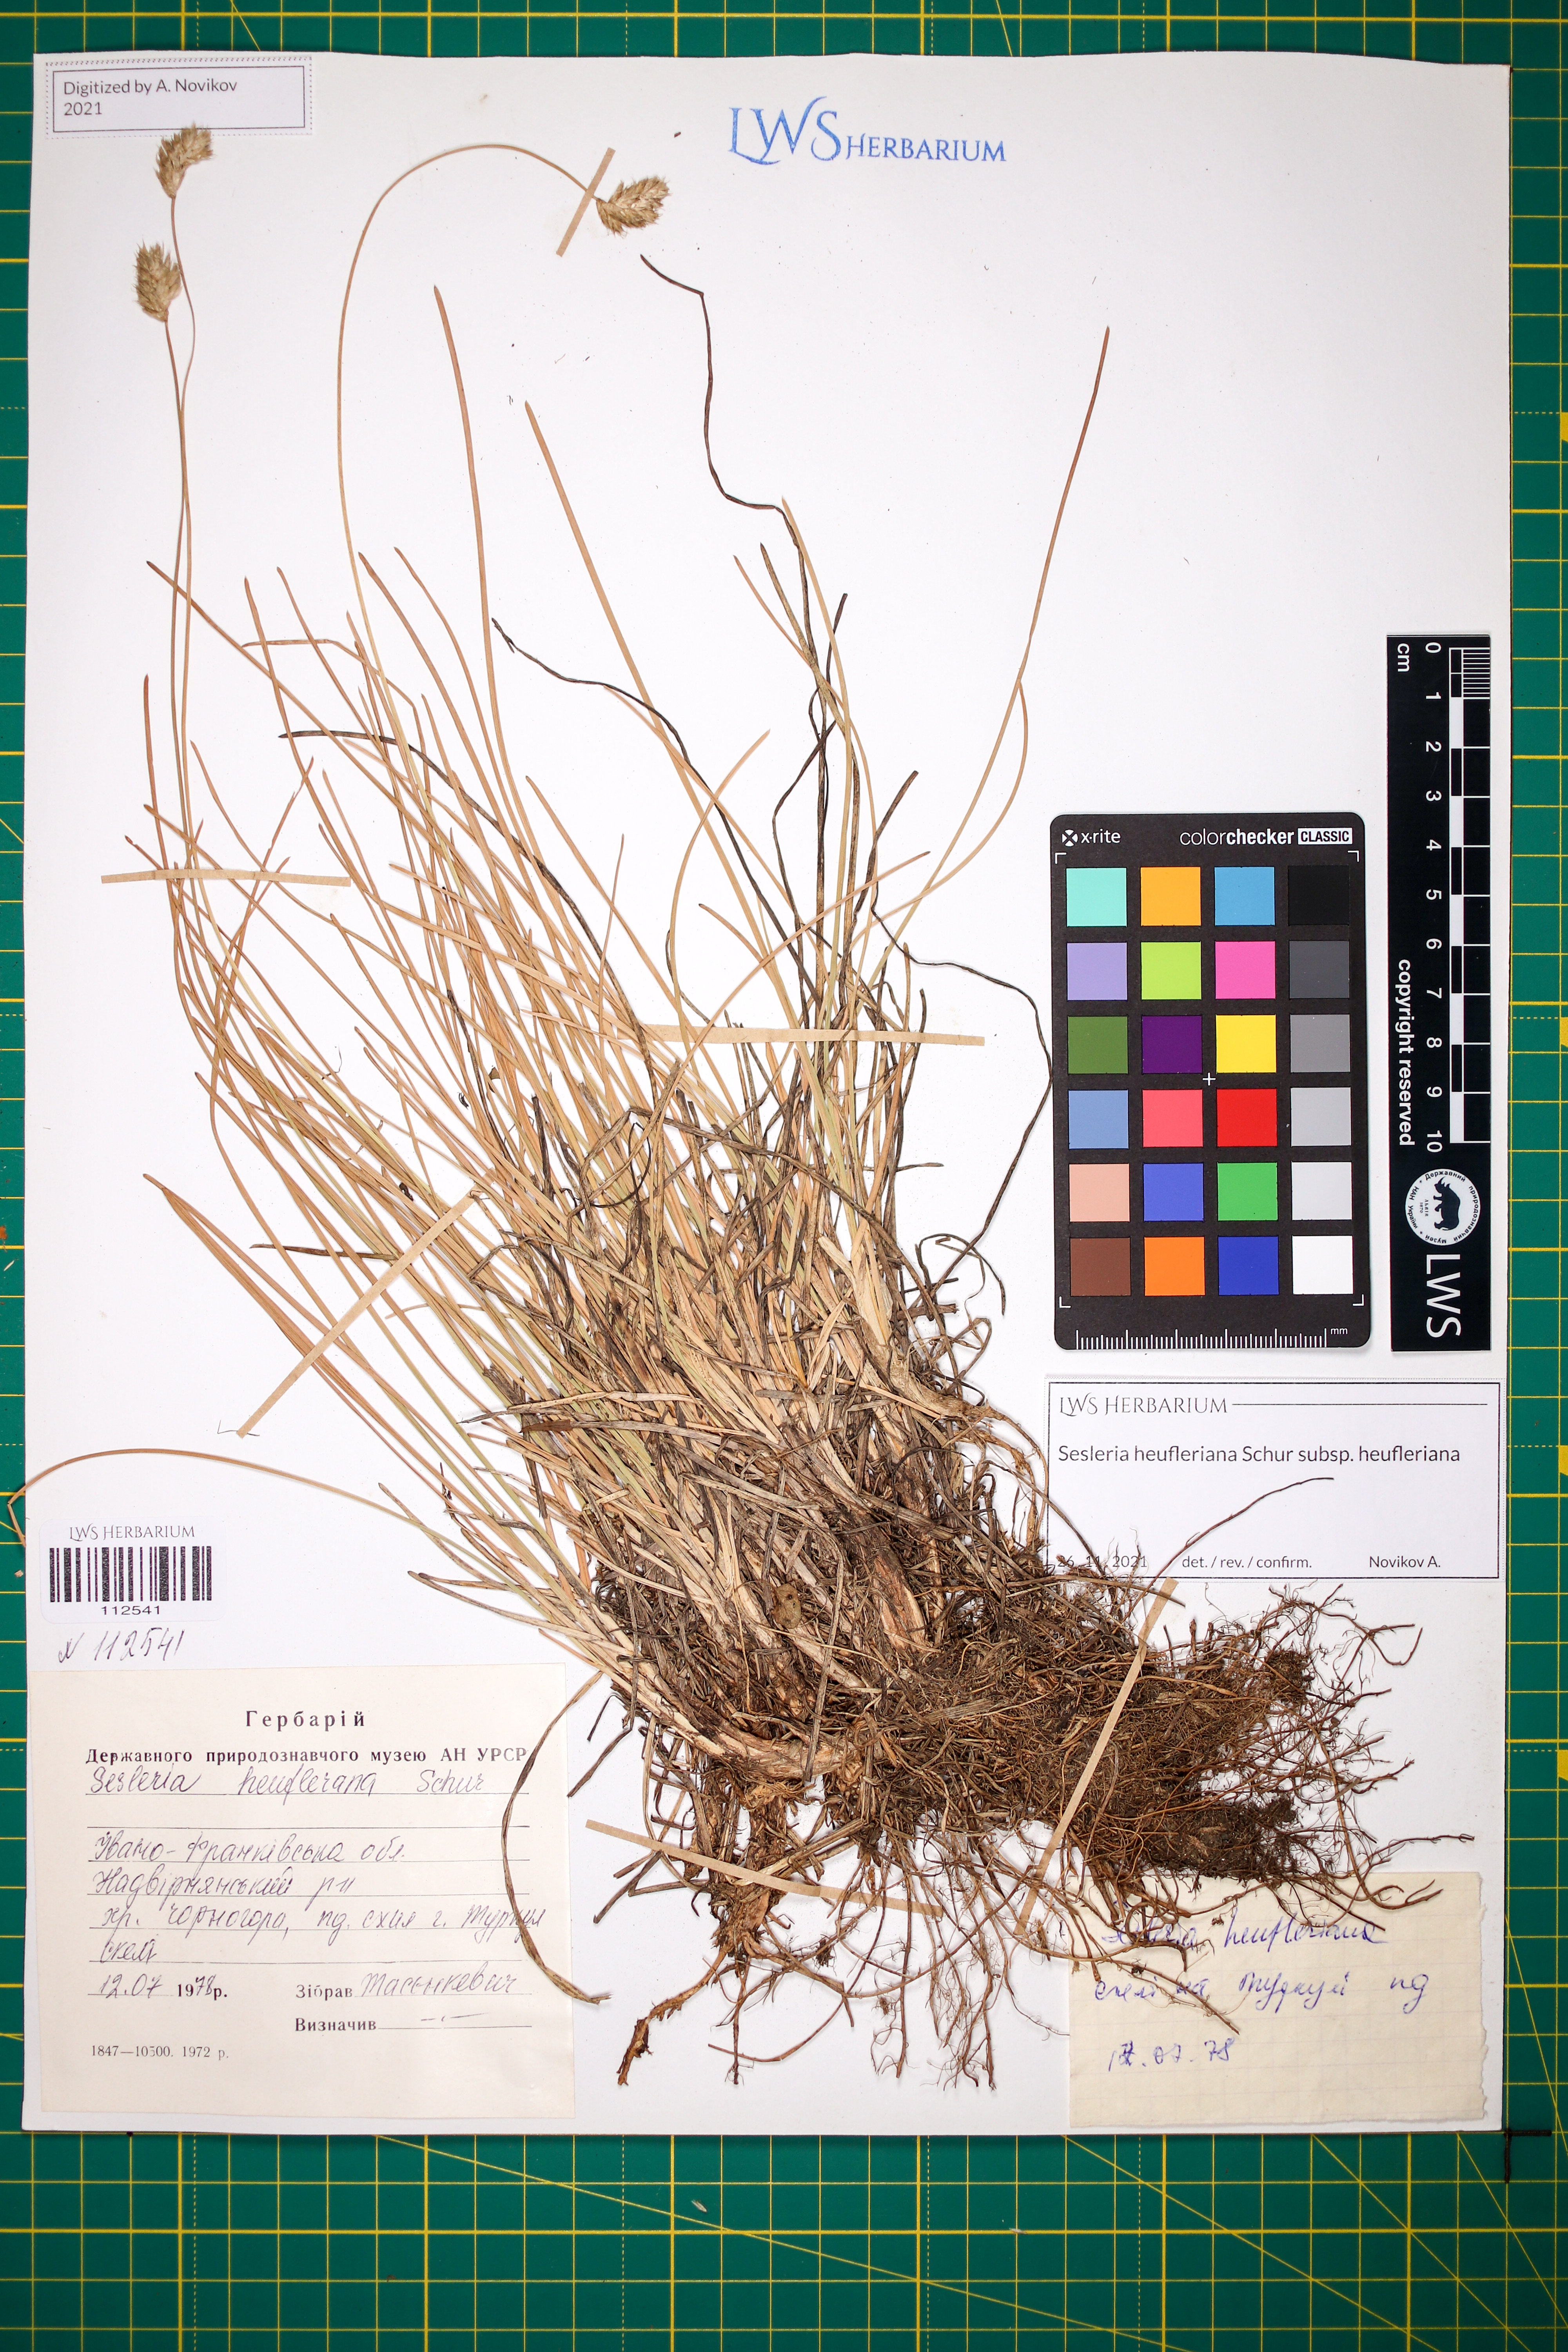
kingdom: Plantae
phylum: Tracheophyta
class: Liliopsida
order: Poales
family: Poaceae
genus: Sesleria
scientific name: Sesleria heufleriana
